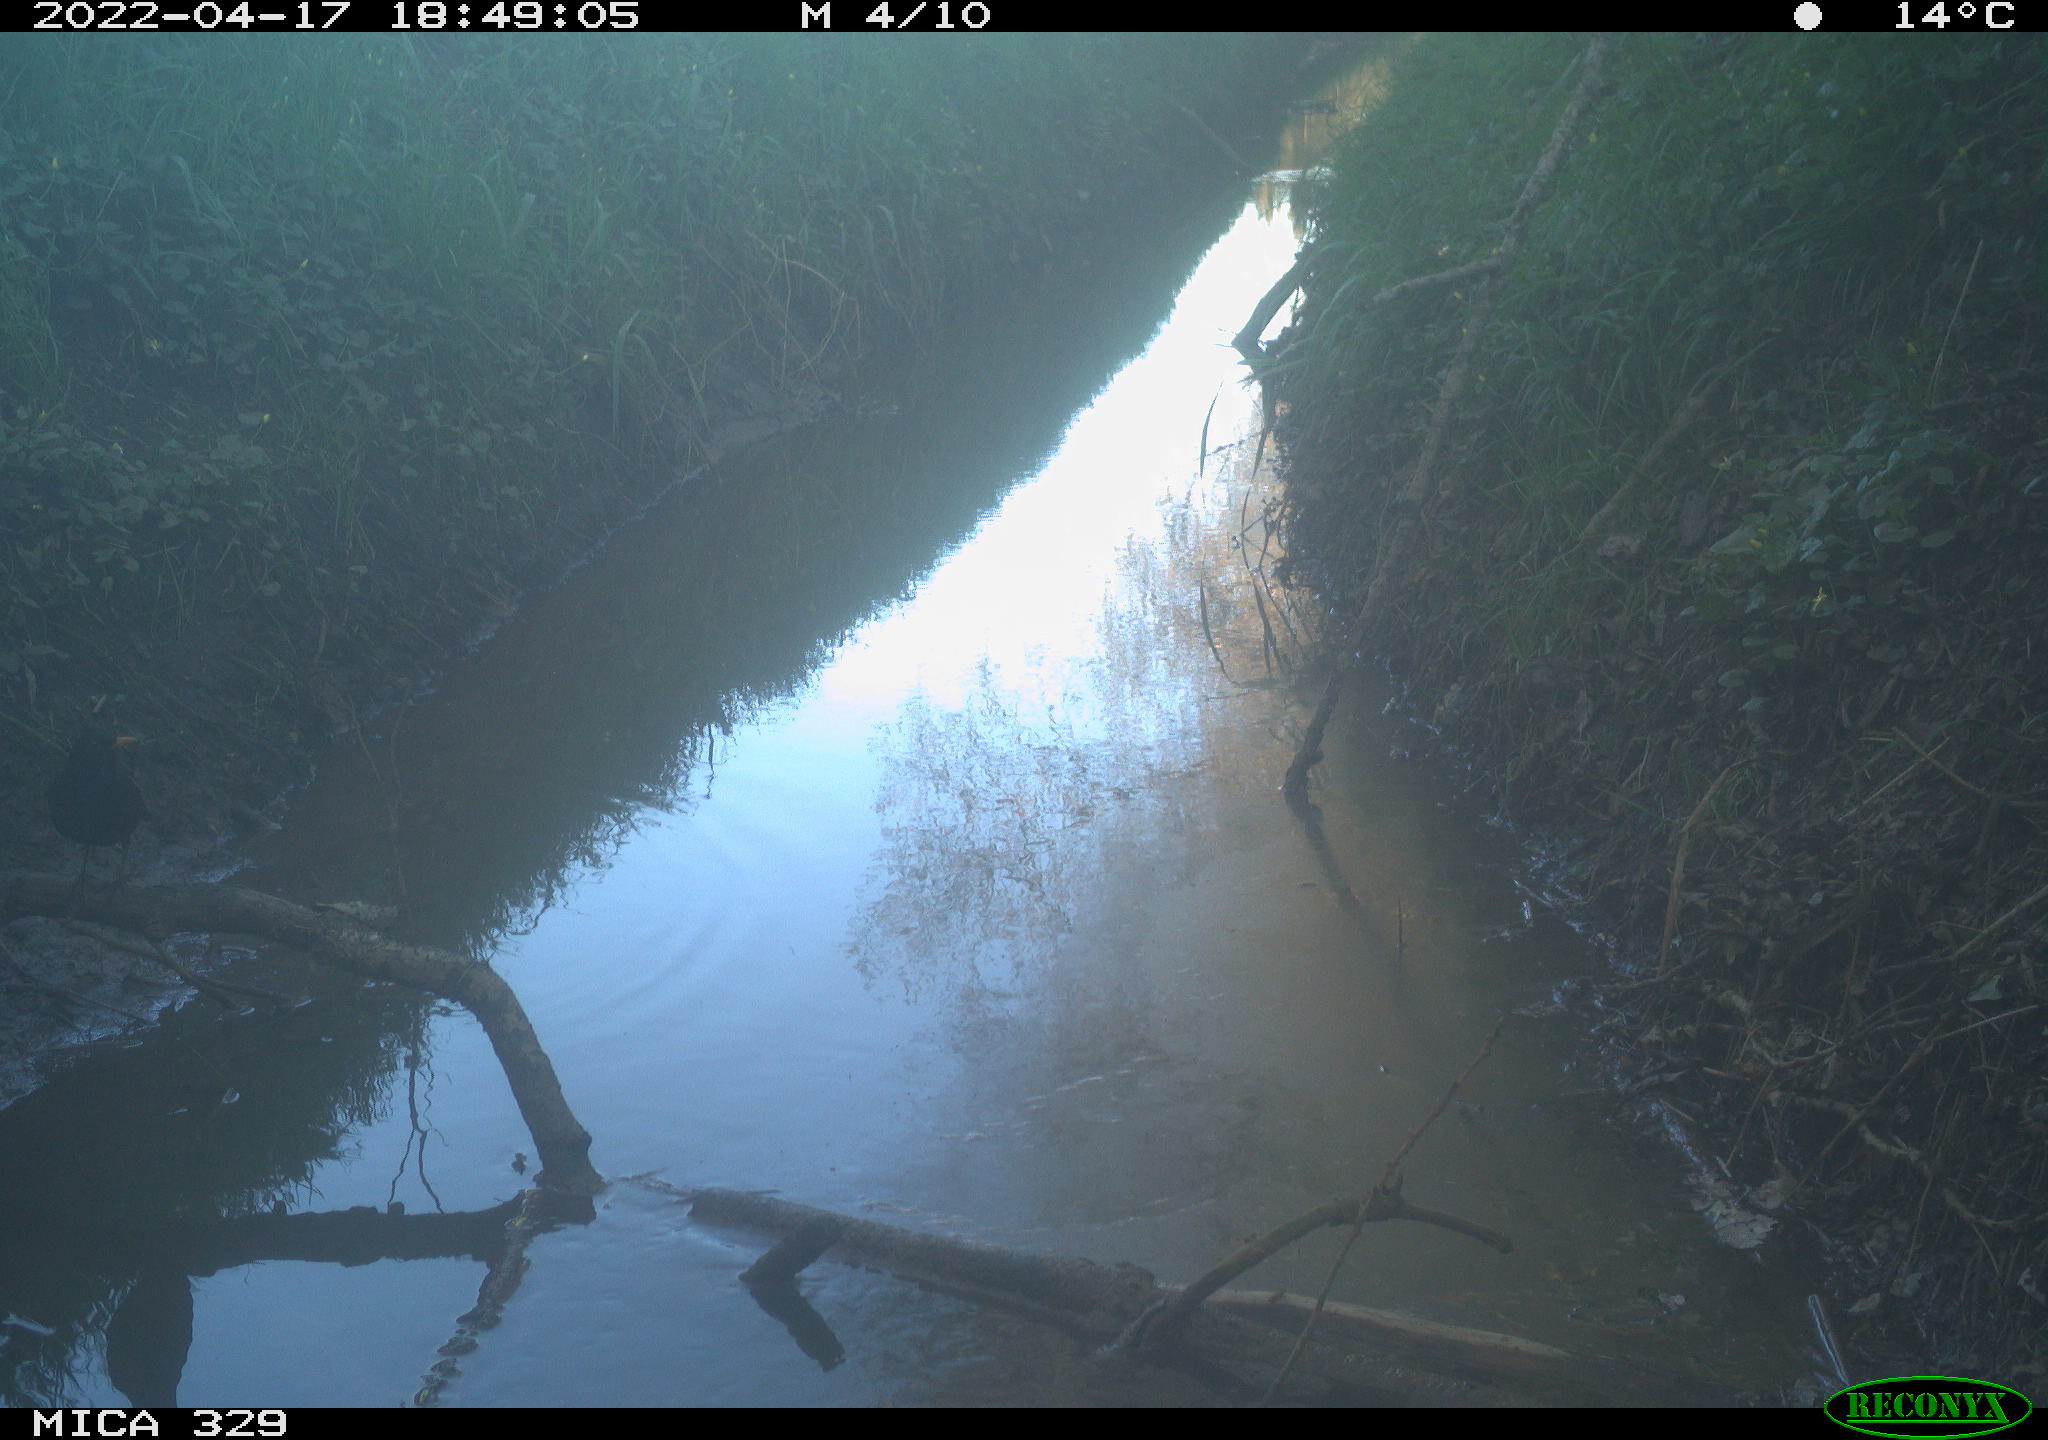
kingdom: Animalia
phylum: Chordata
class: Aves
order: Passeriformes
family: Turdidae
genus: Turdus
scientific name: Turdus merula
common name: Common blackbird
